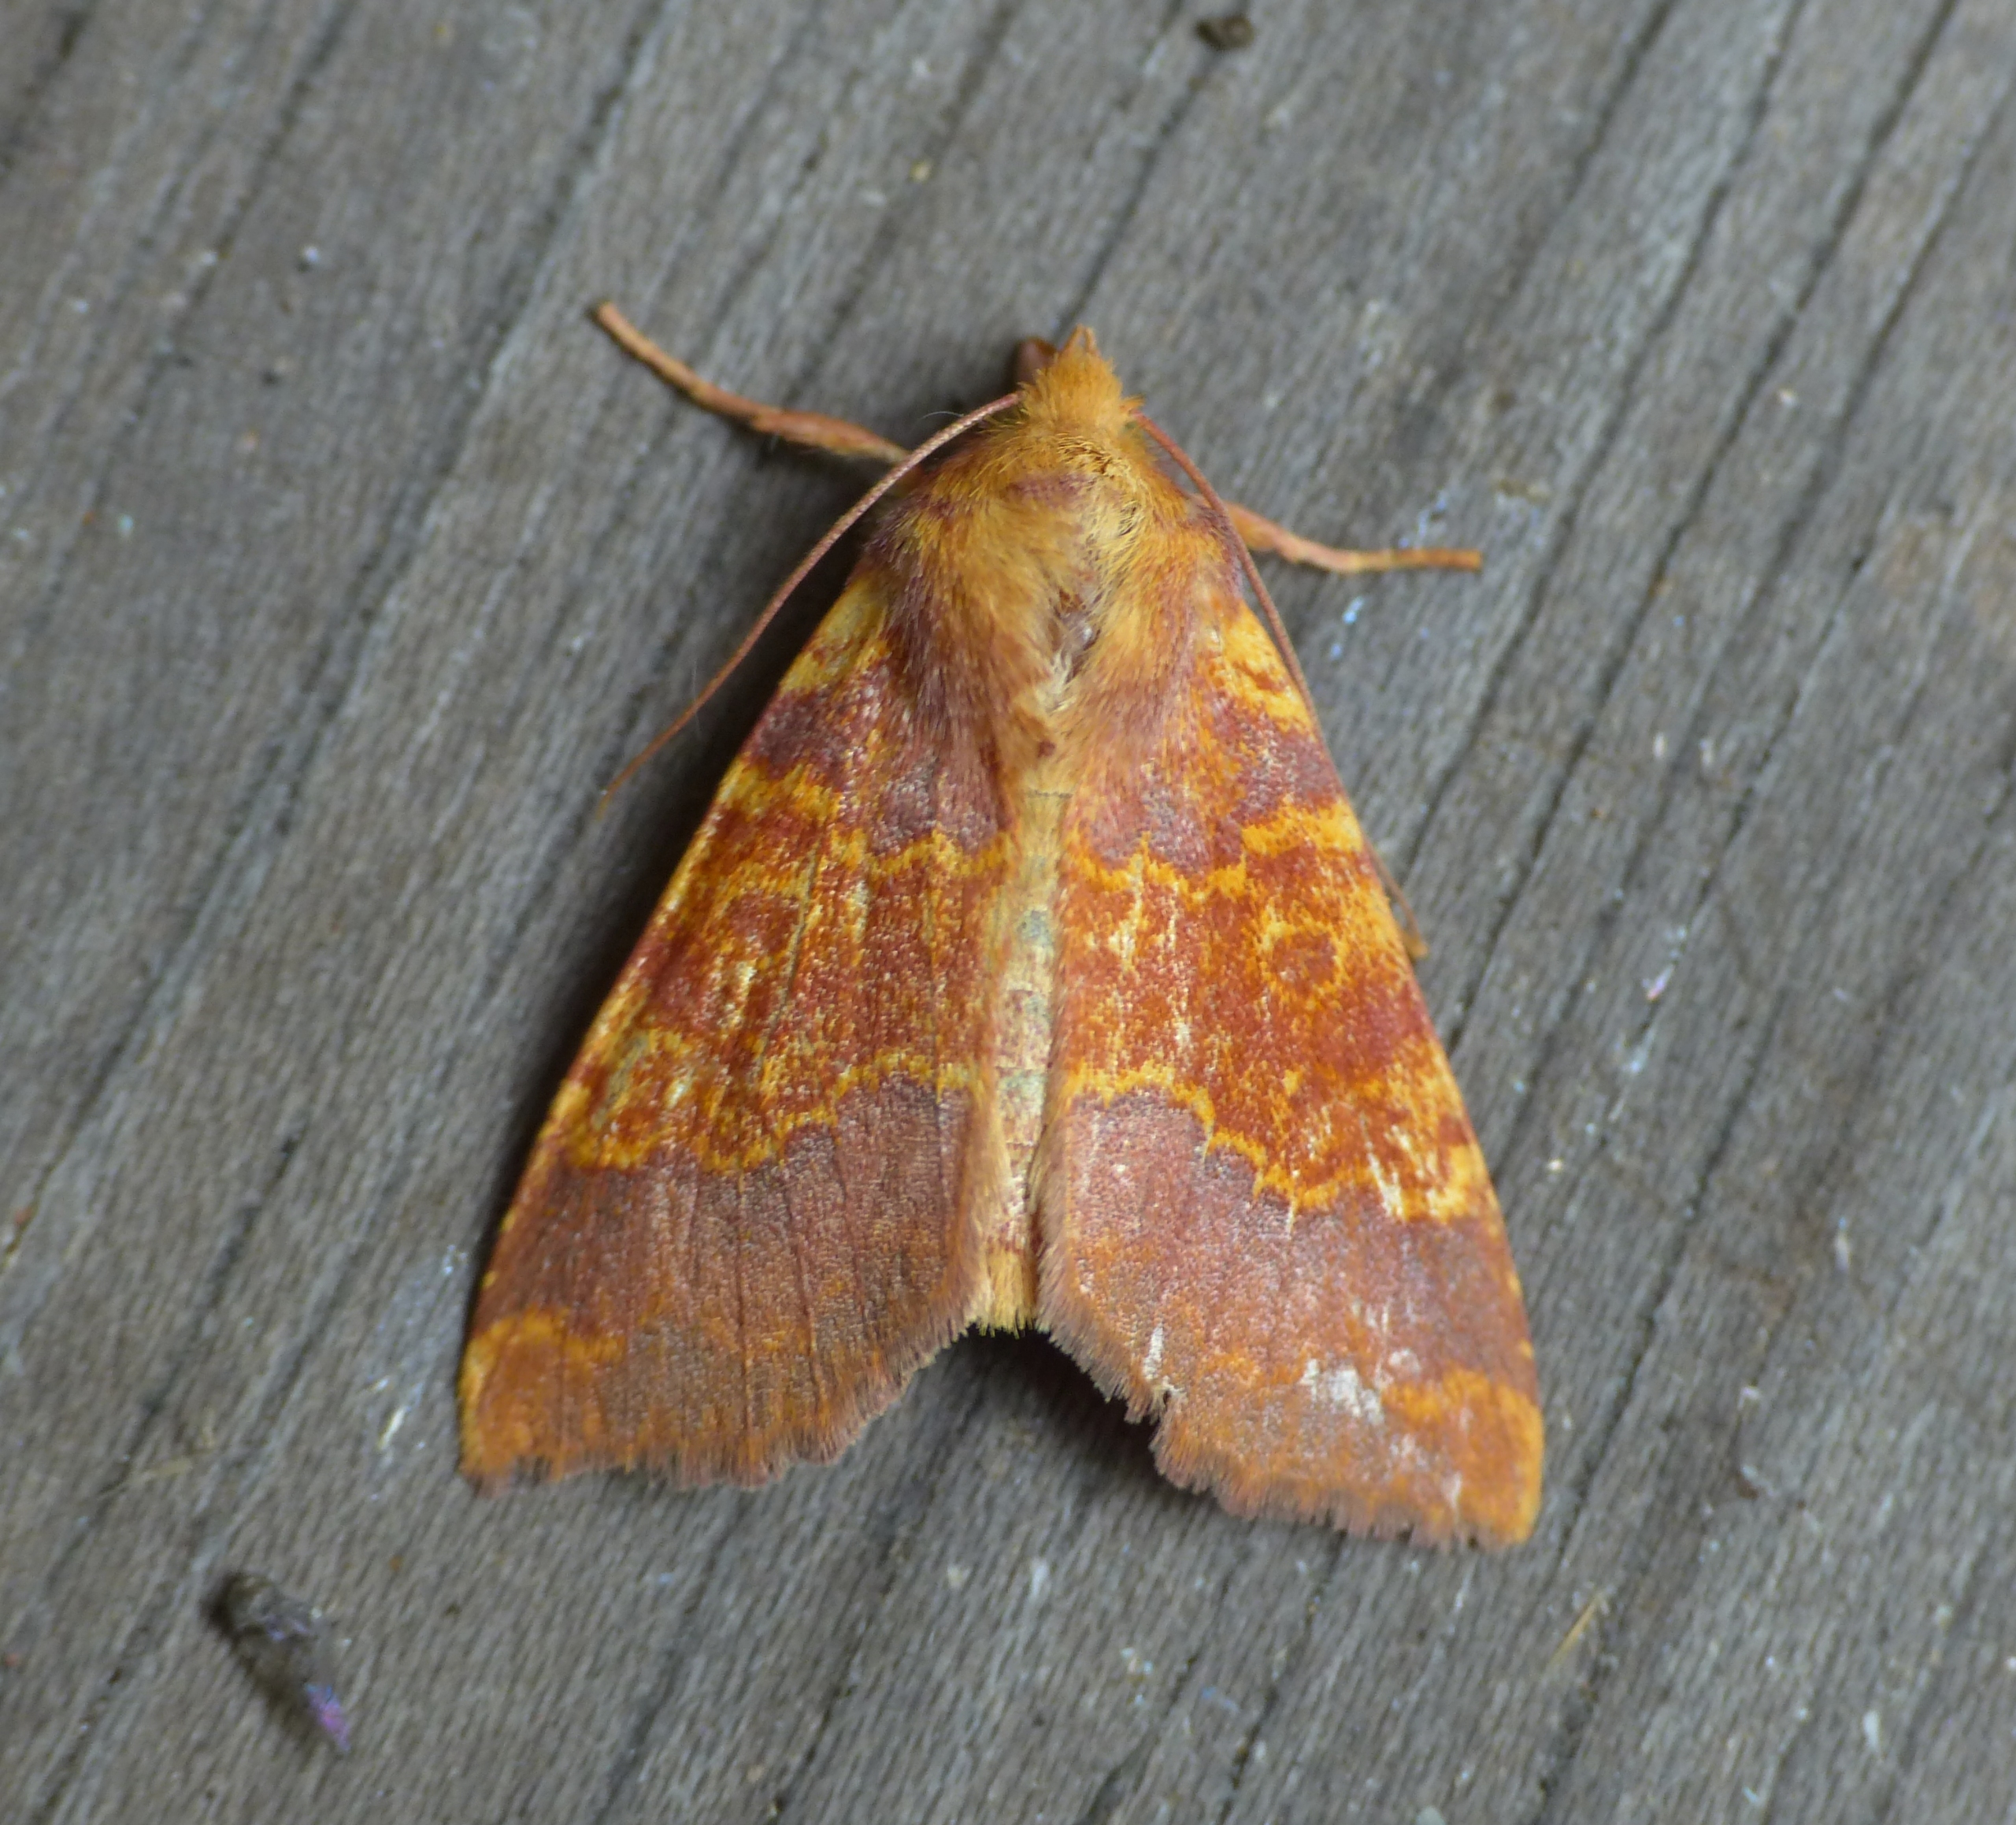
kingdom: Animalia
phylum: Arthropoda
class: Insecta
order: Lepidoptera
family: Noctuidae
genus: Tiliacea
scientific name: Tiliacea aurago
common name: Guldugle
